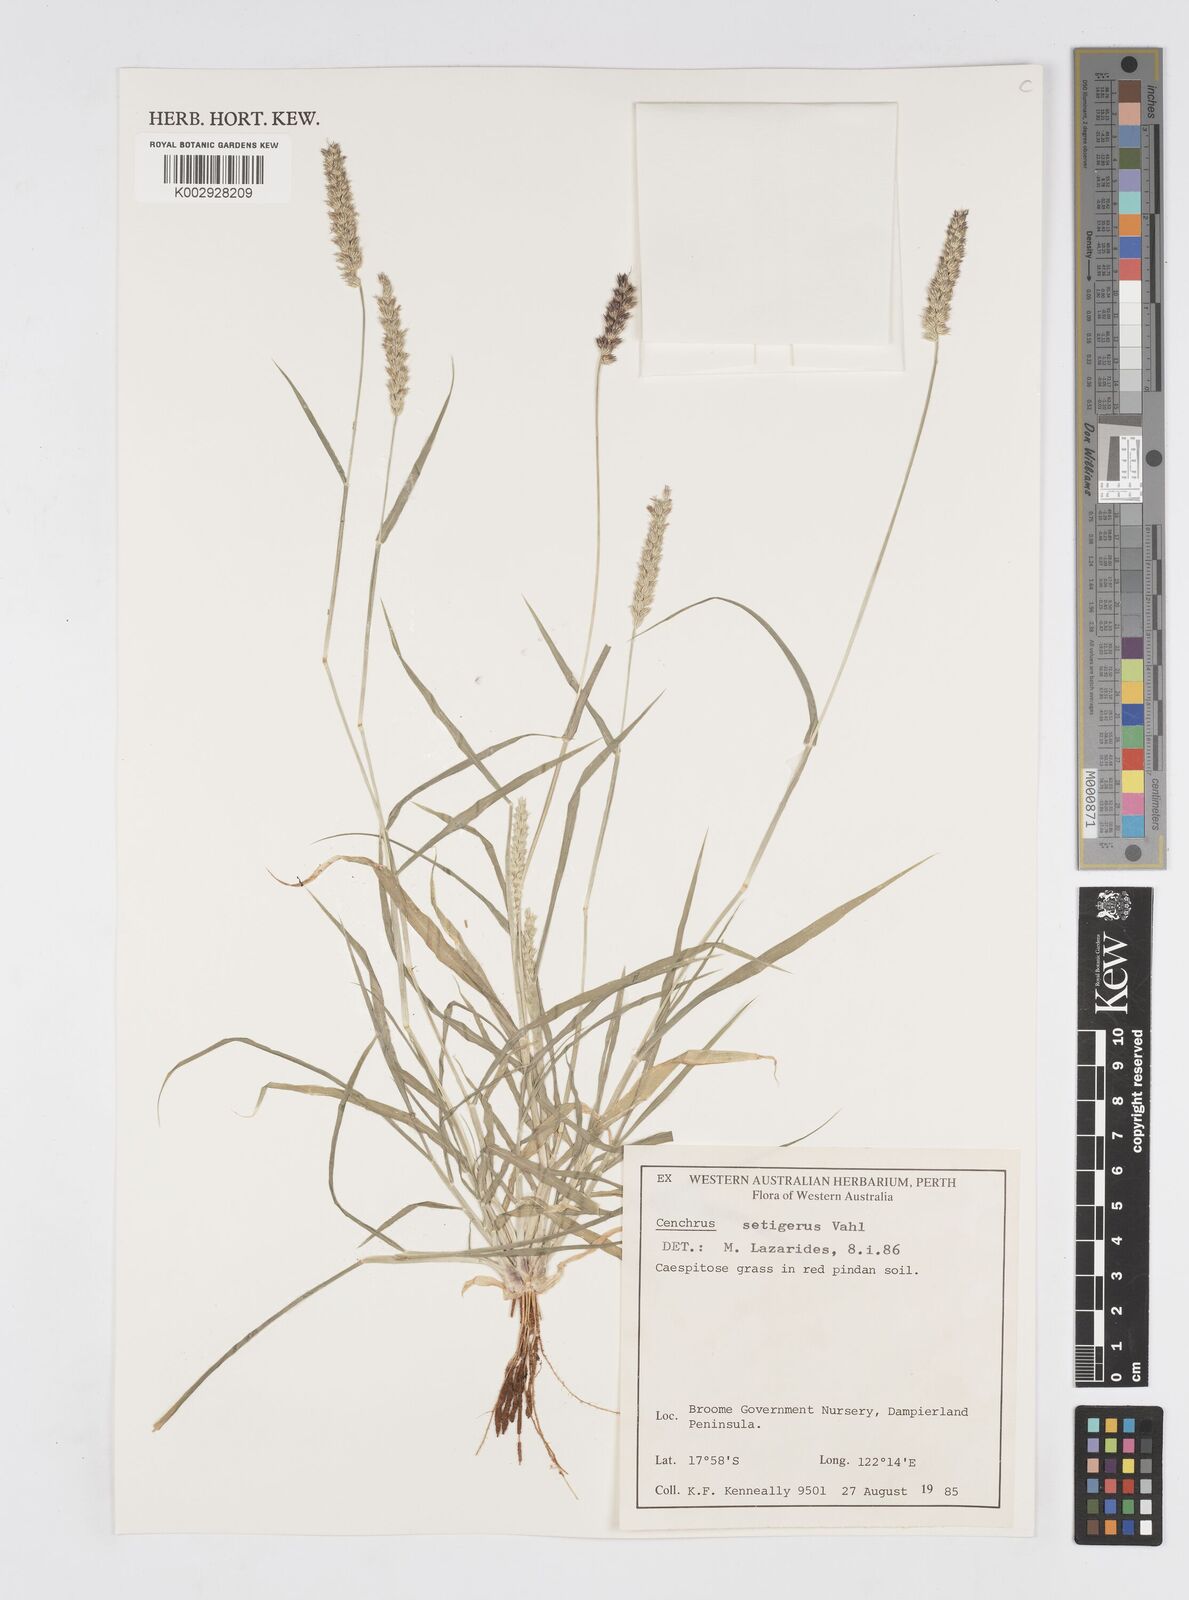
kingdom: Plantae
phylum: Tracheophyta
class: Liliopsida
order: Poales
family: Poaceae
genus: Cenchrus
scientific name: Cenchrus setigerus
